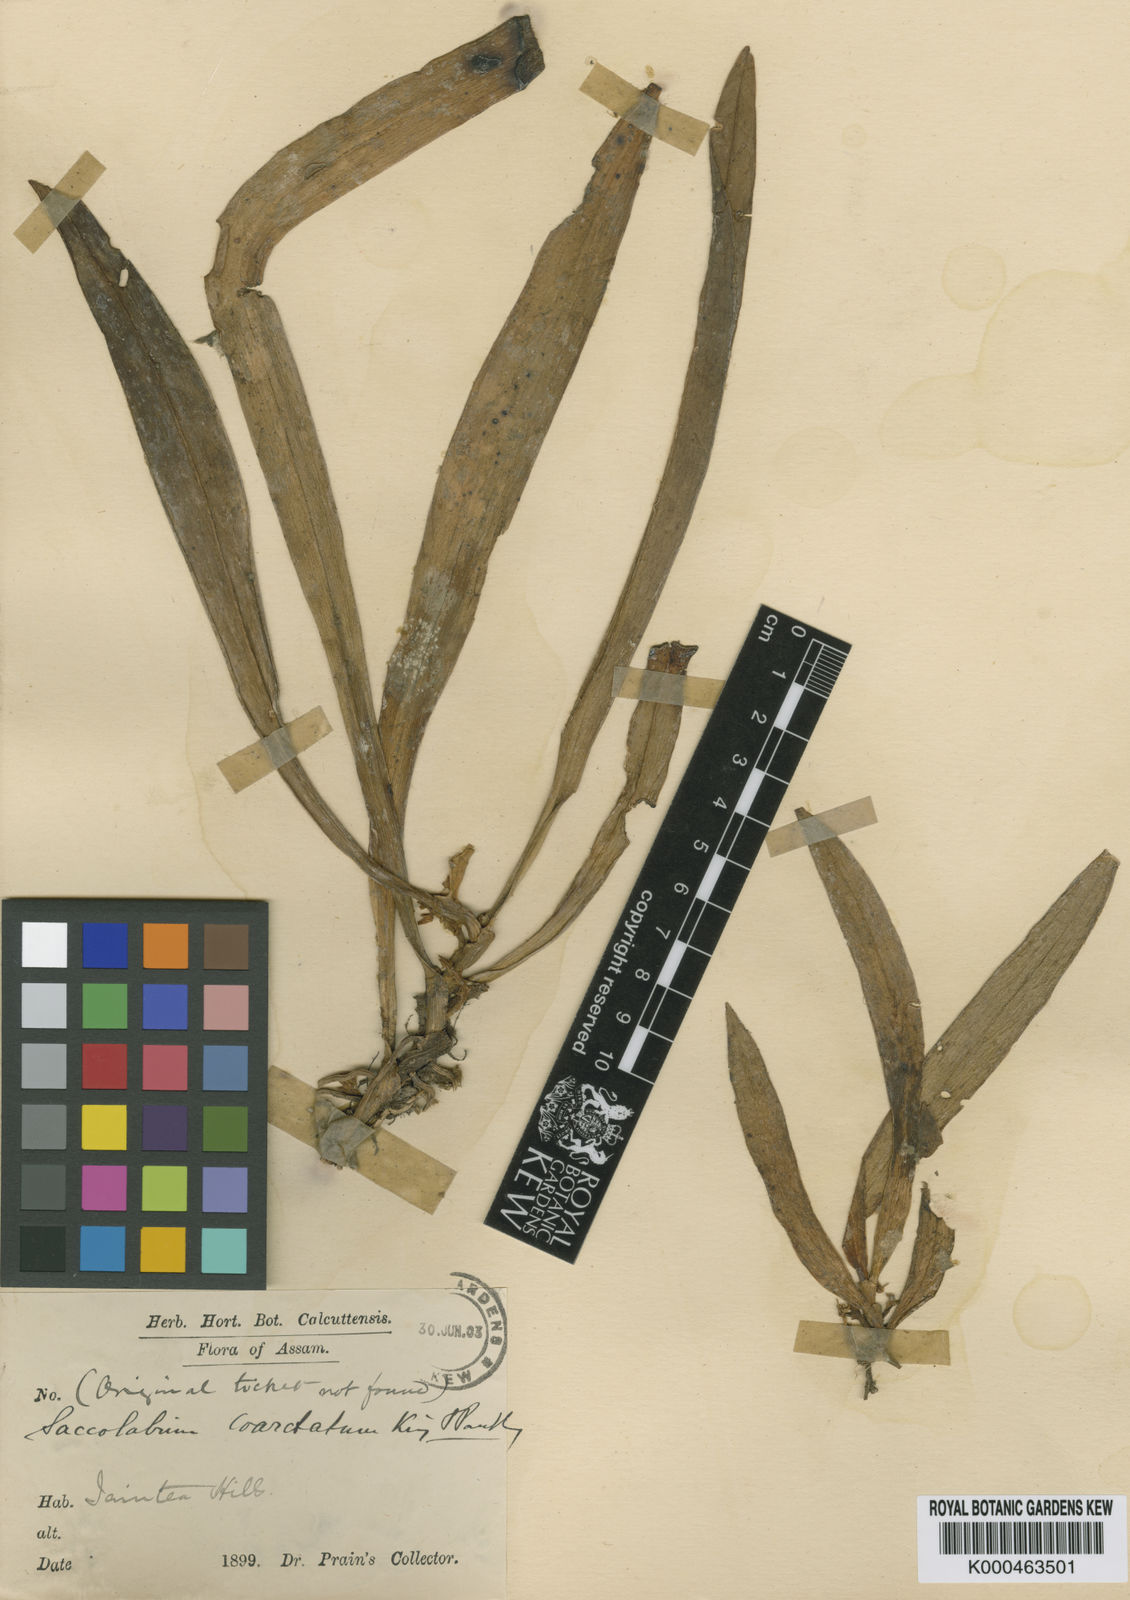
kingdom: Plantae
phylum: Tracheophyta
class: Liliopsida
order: Asparagales
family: Orchidaceae
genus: Trachoma
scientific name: Trachoma coarctatum
